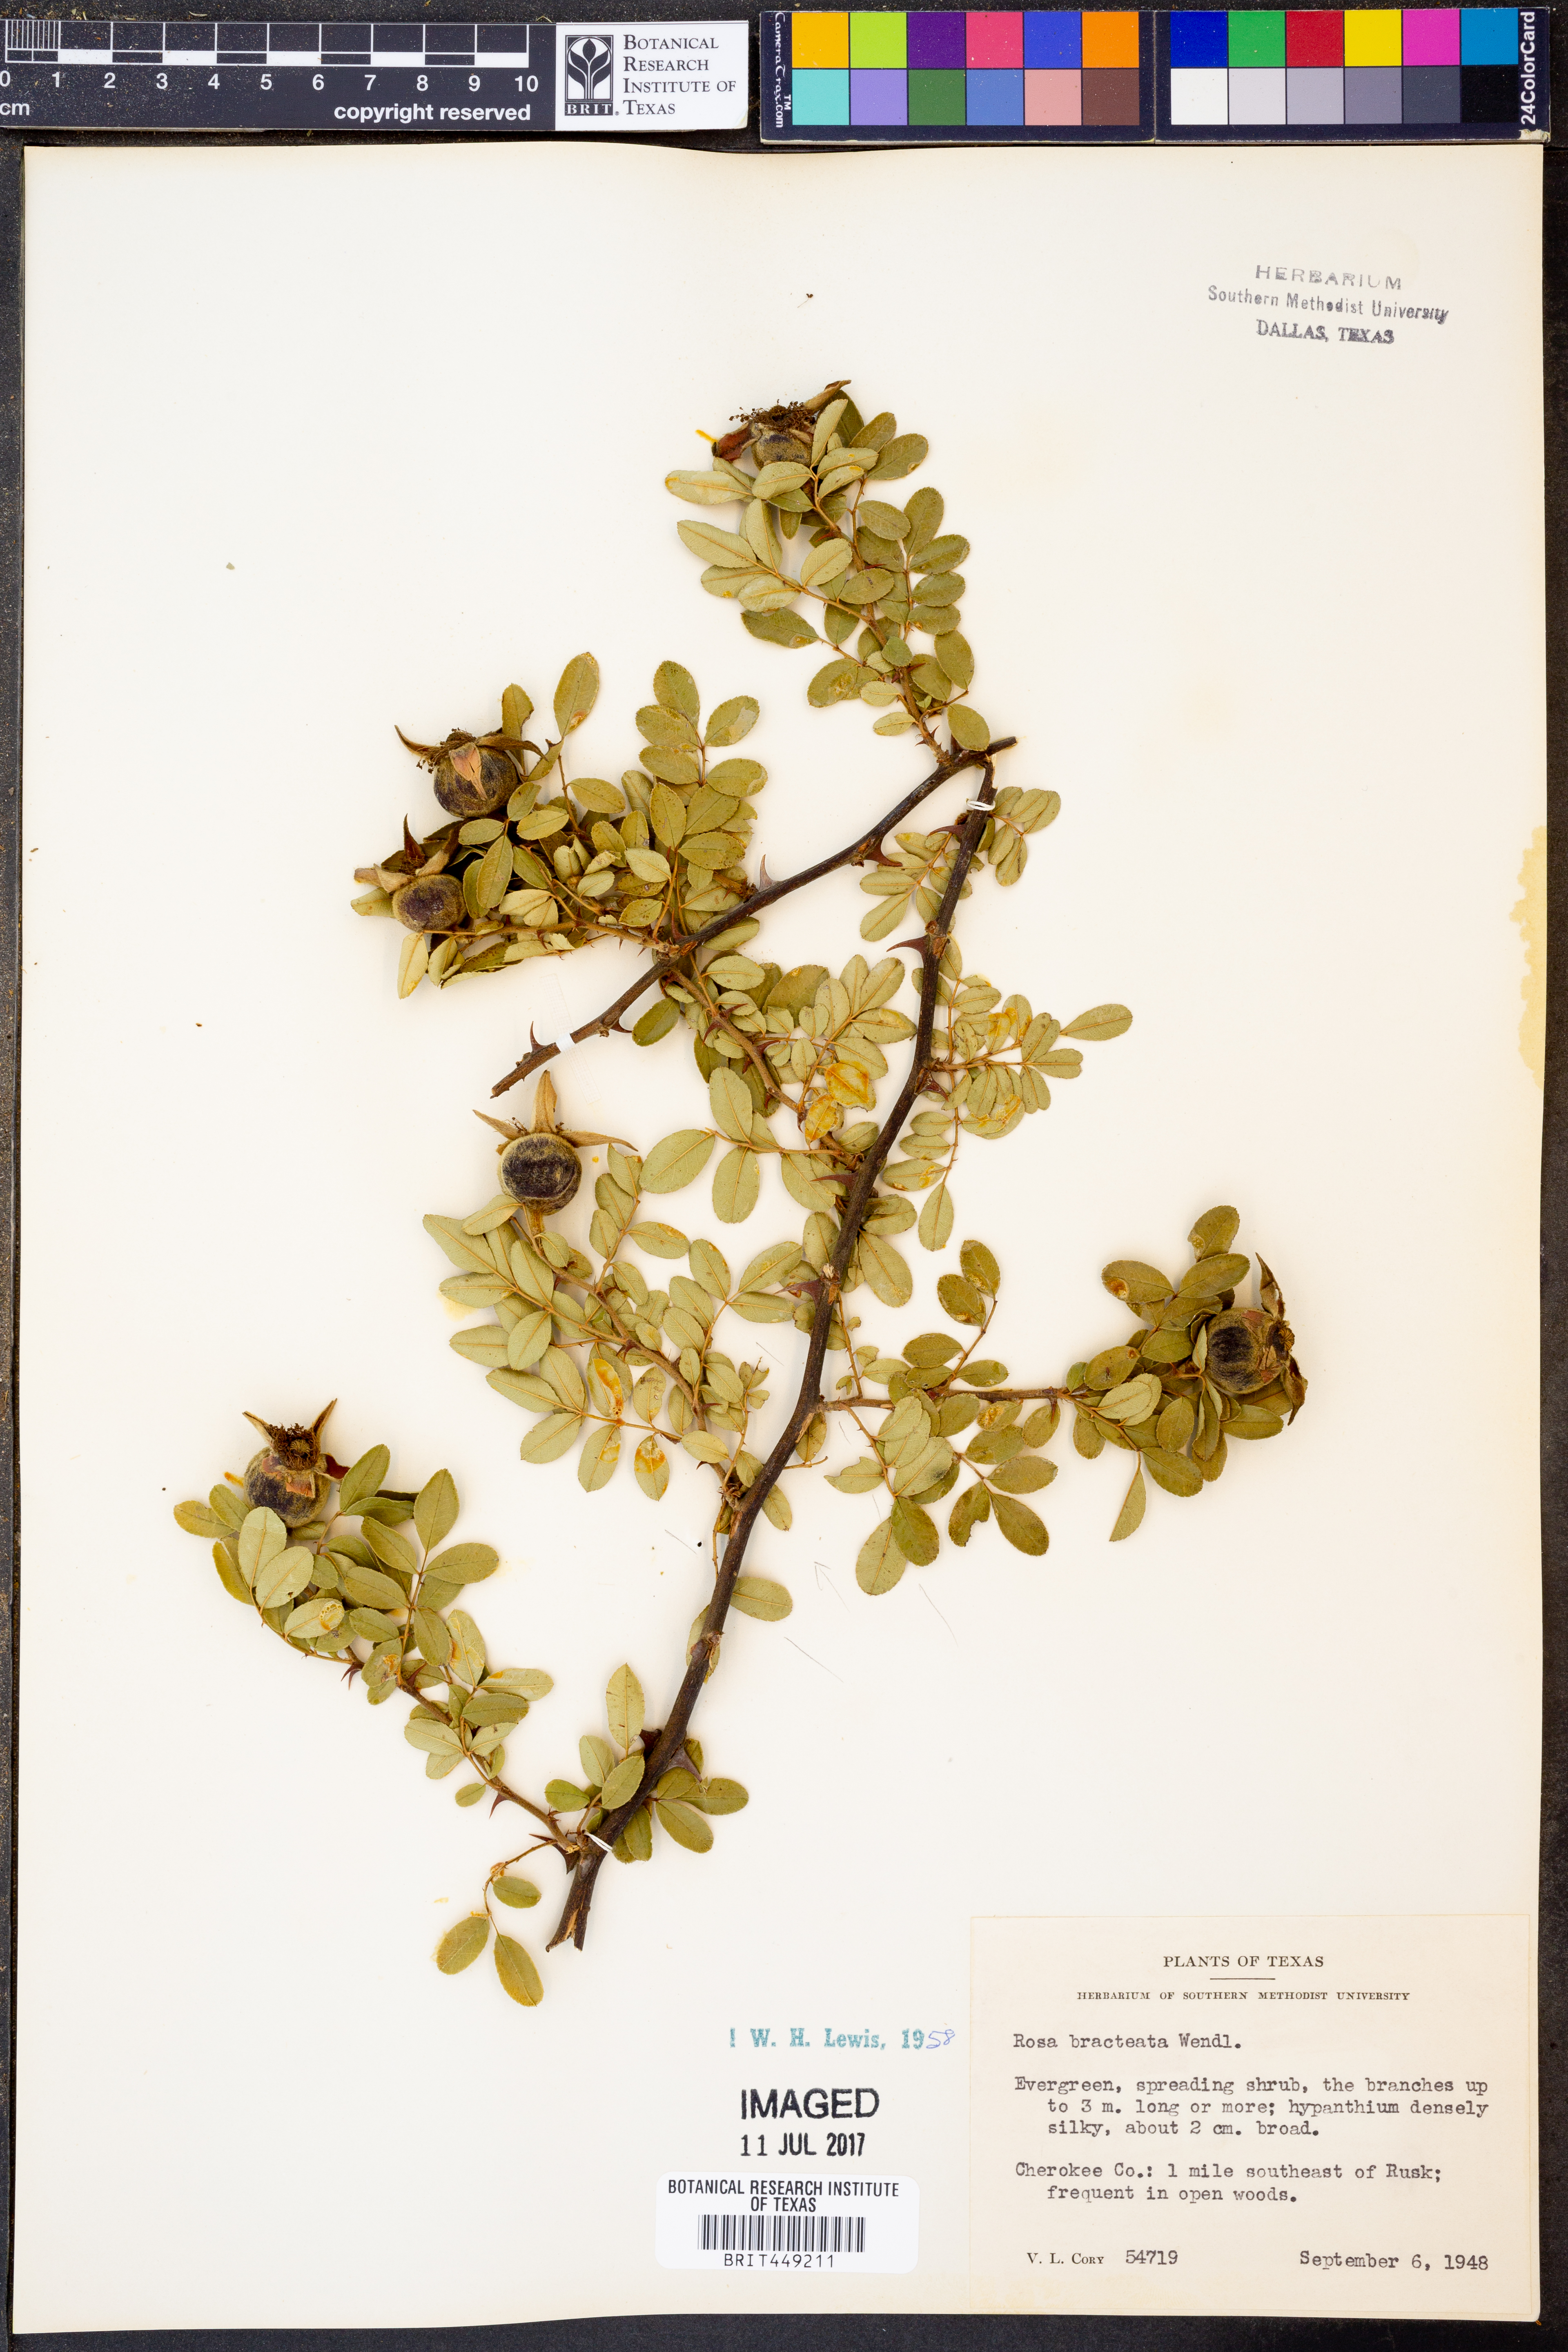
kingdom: Plantae
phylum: Tracheophyta
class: Magnoliopsida
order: Rosales
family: Rosaceae
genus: Rosa
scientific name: Rosa bracteata
